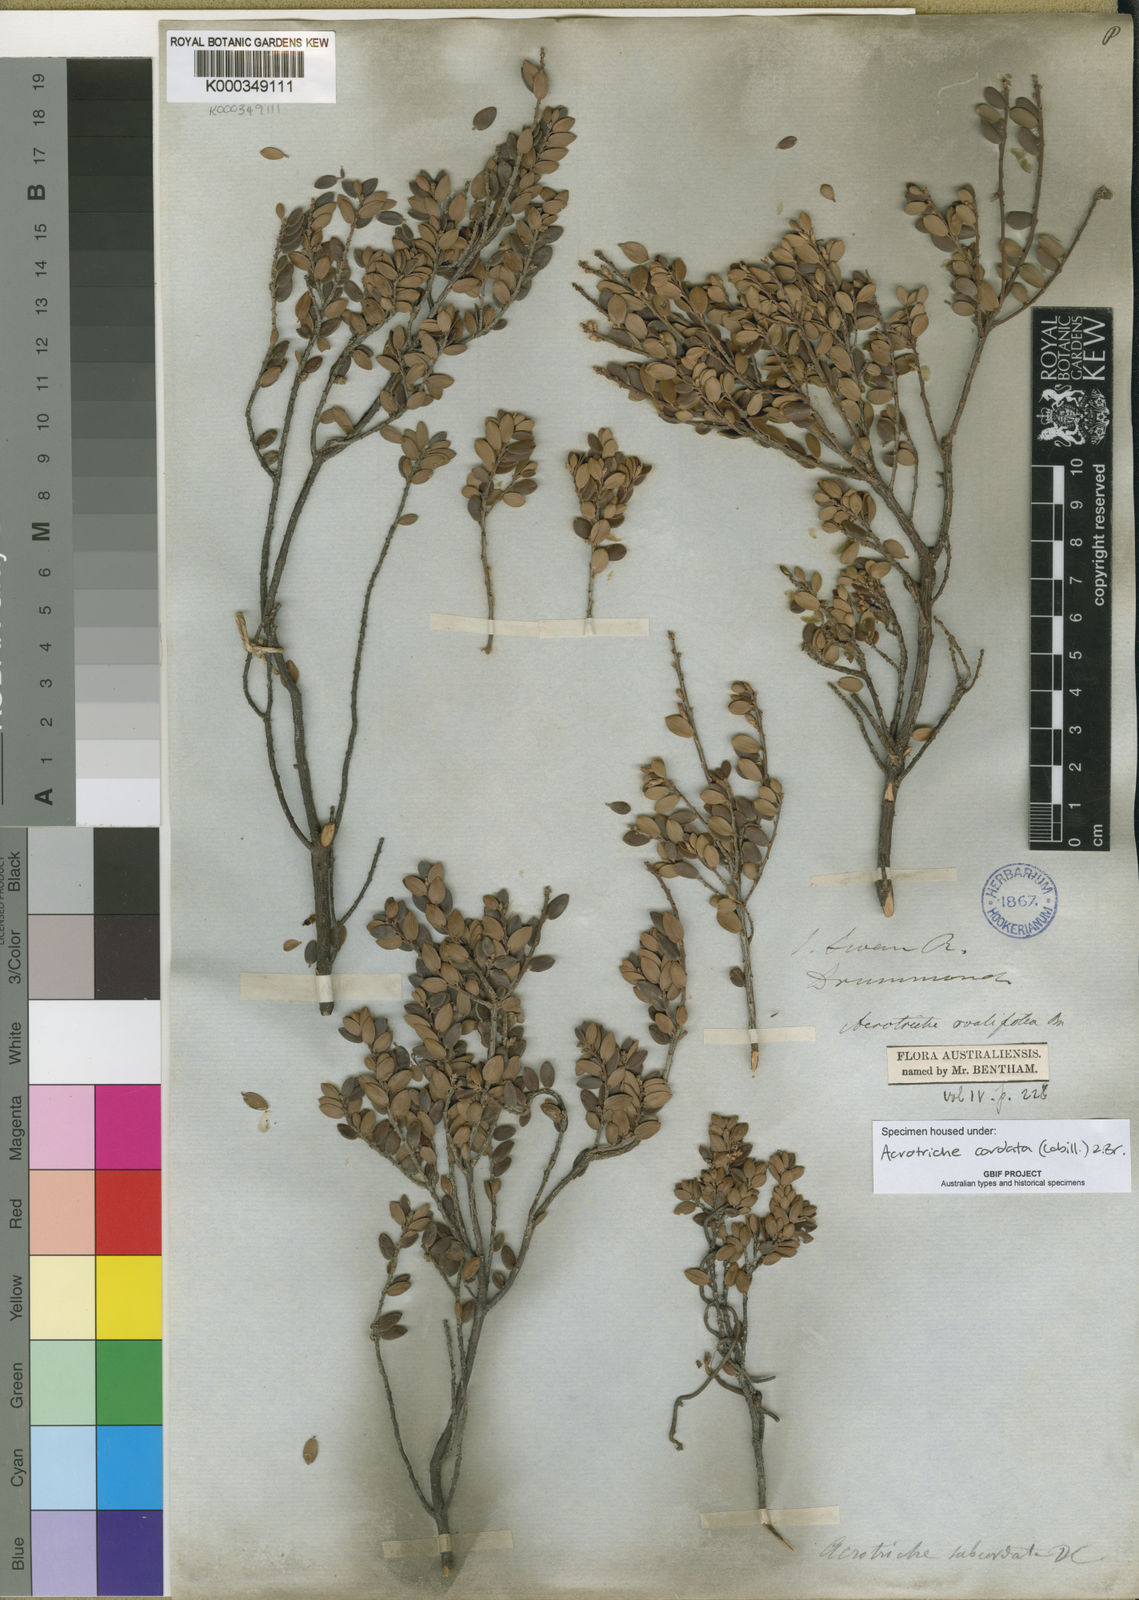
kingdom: Plantae
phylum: Tracheophyta
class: Magnoliopsida
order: Ericales
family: Ericaceae
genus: Acrotriche
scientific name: Acrotriche cordata
